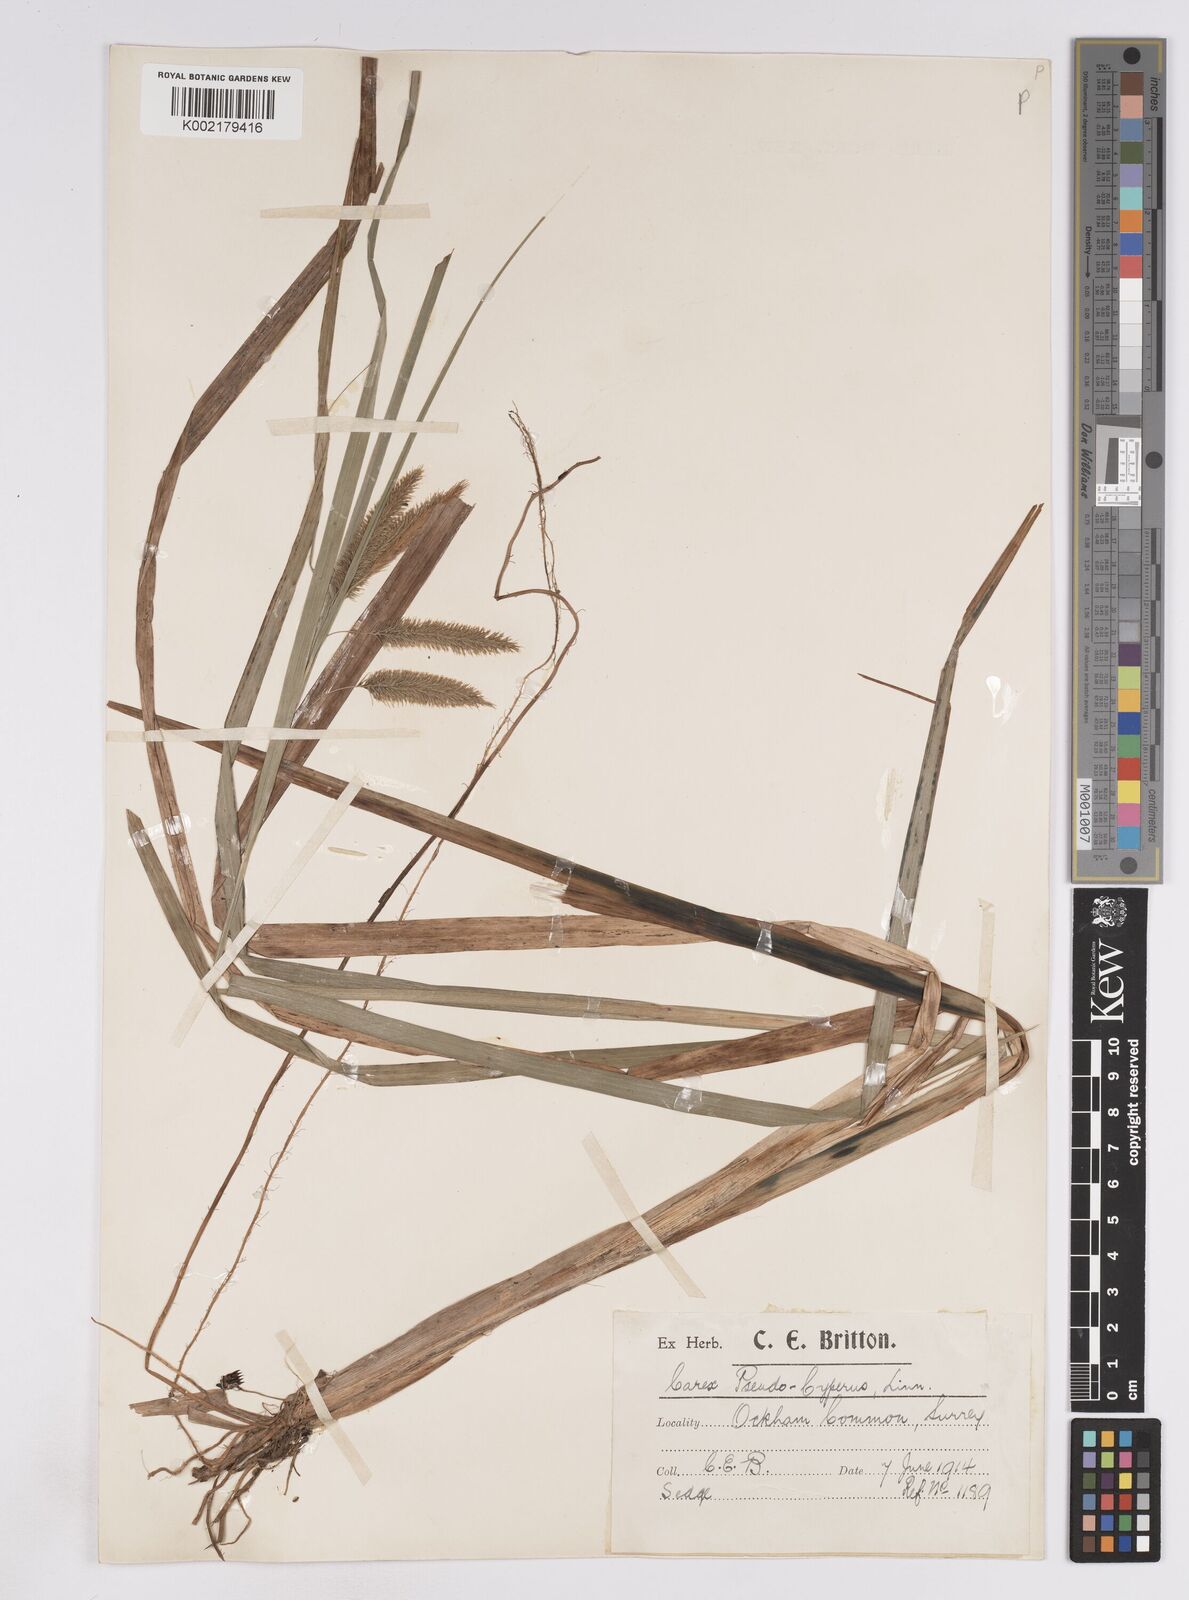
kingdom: Plantae
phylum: Tracheophyta
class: Liliopsida
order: Poales
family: Cyperaceae
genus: Carex
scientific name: Carex pseudocyperus
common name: Cyperus sedge
